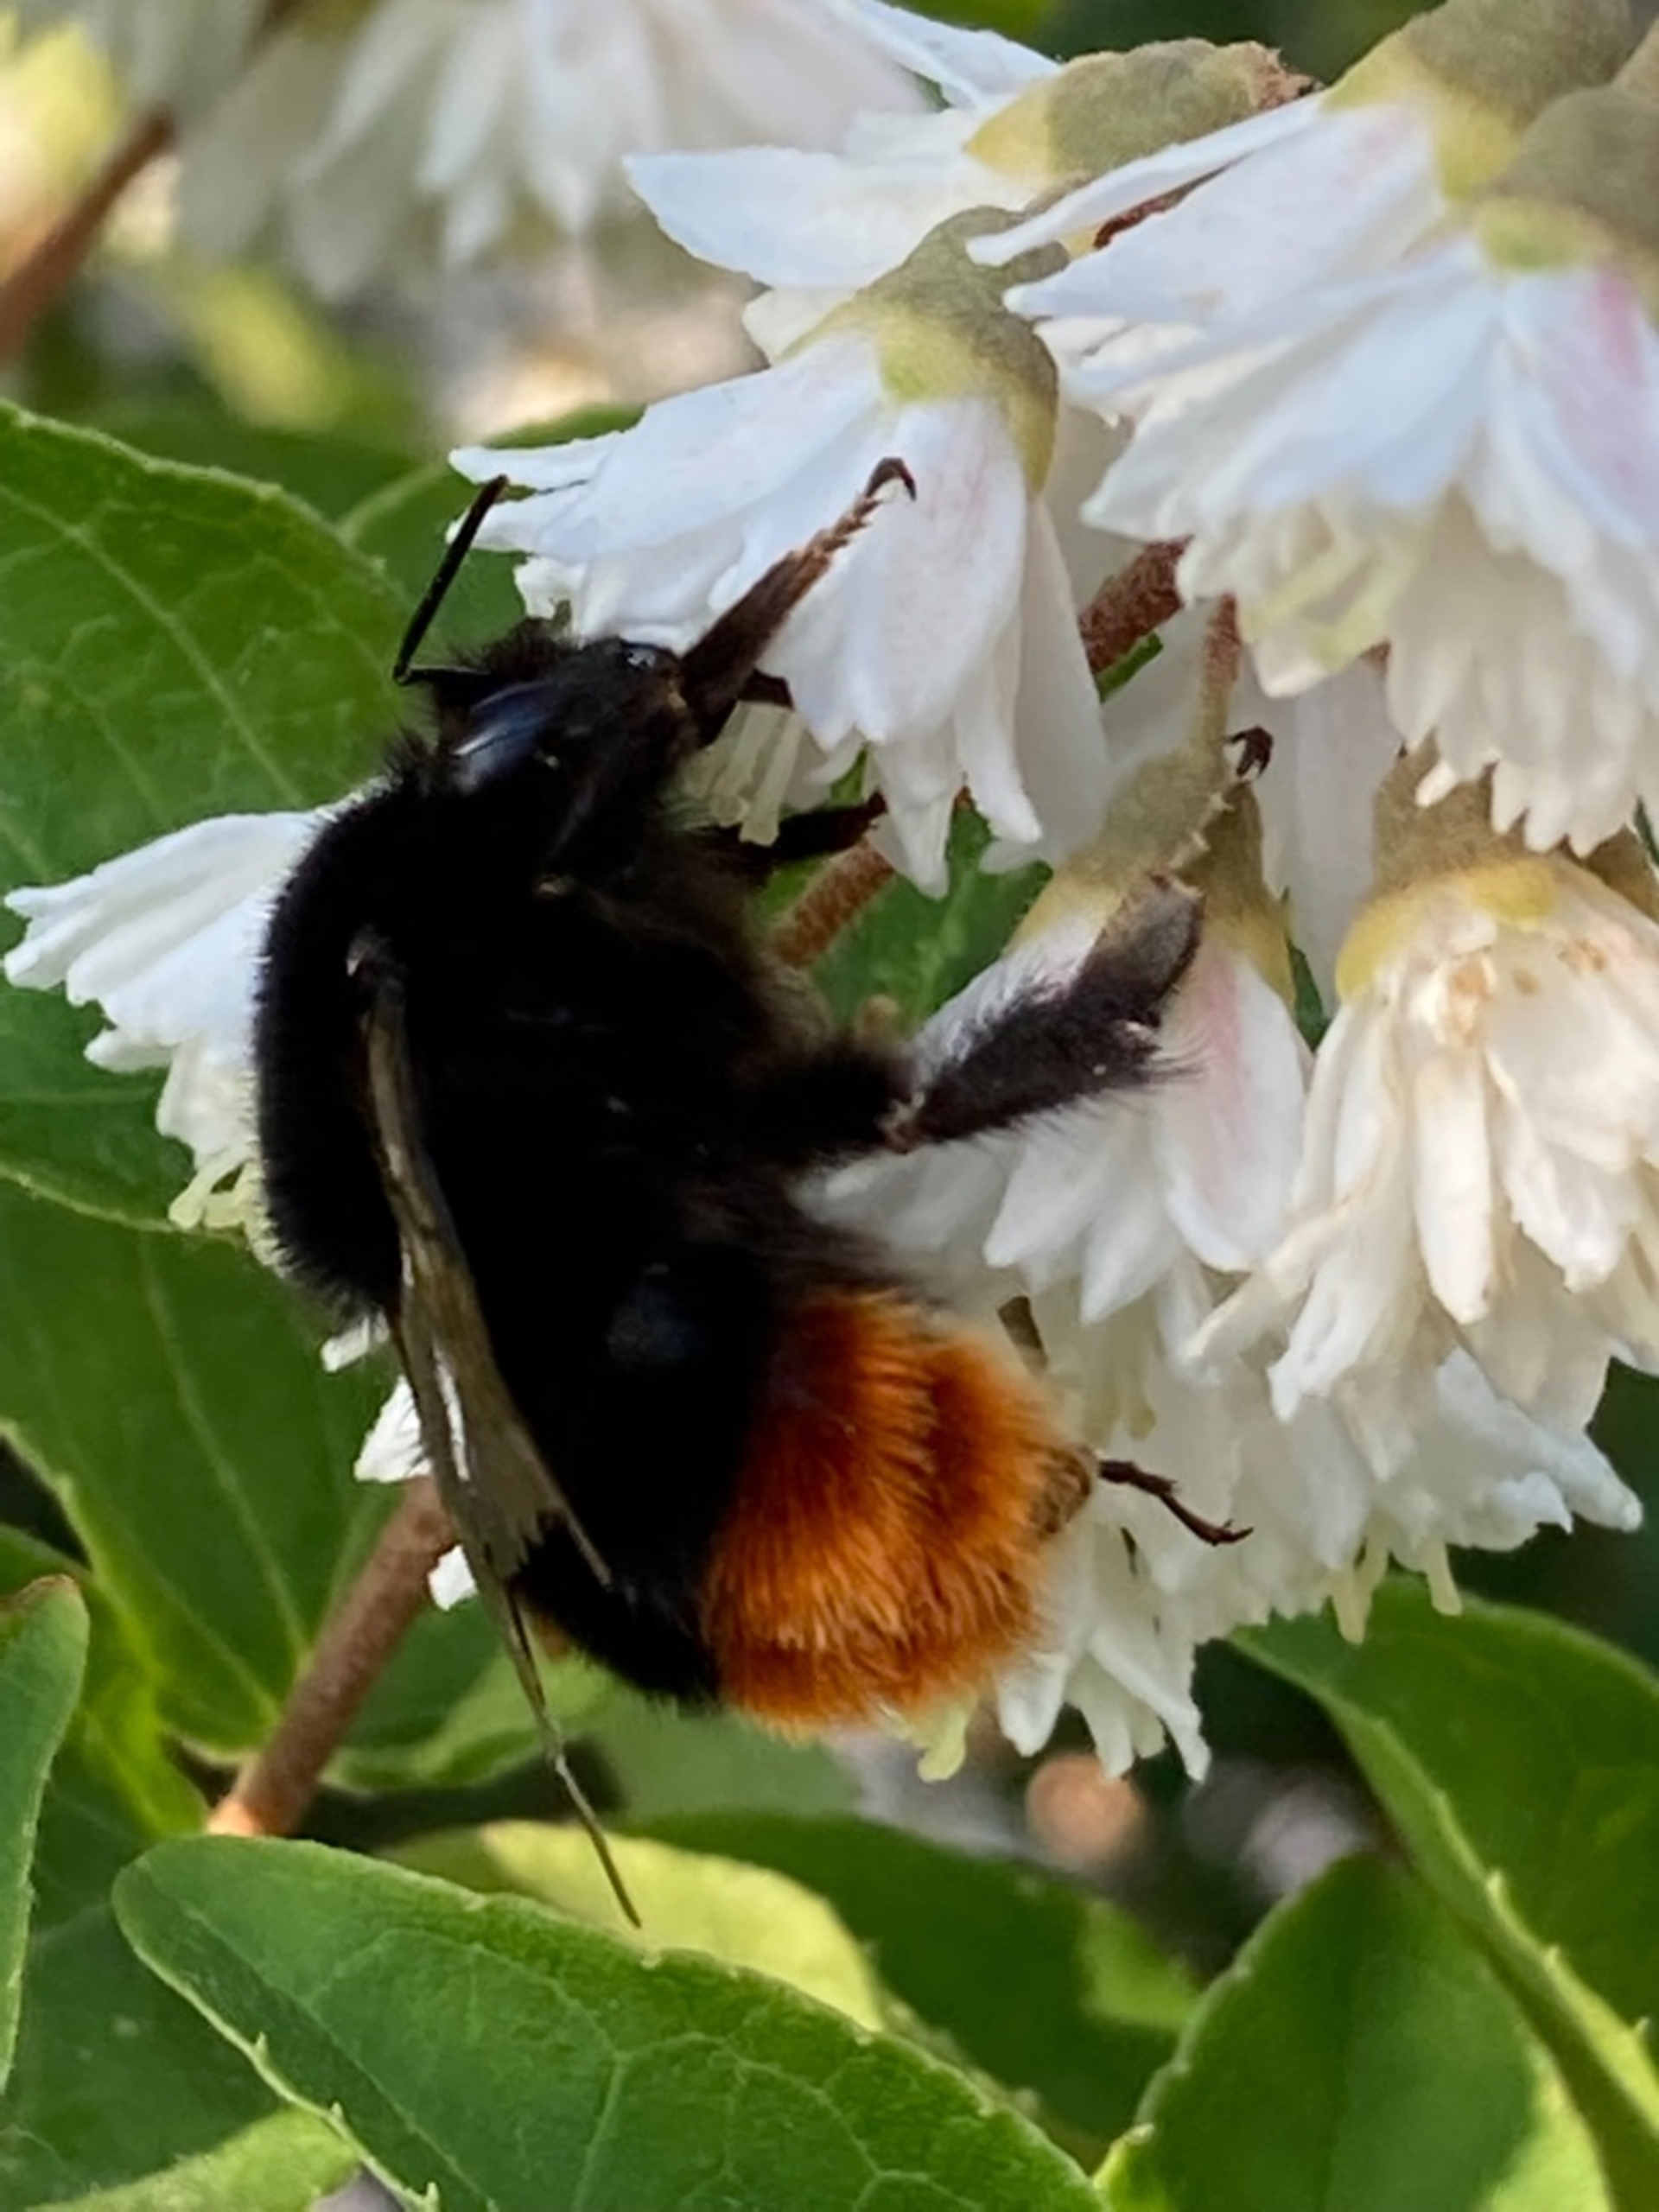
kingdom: Animalia
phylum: Arthropoda
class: Insecta
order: Hymenoptera
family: Apidae
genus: Bombus
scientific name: Bombus lapidarius
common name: Stenhumle
